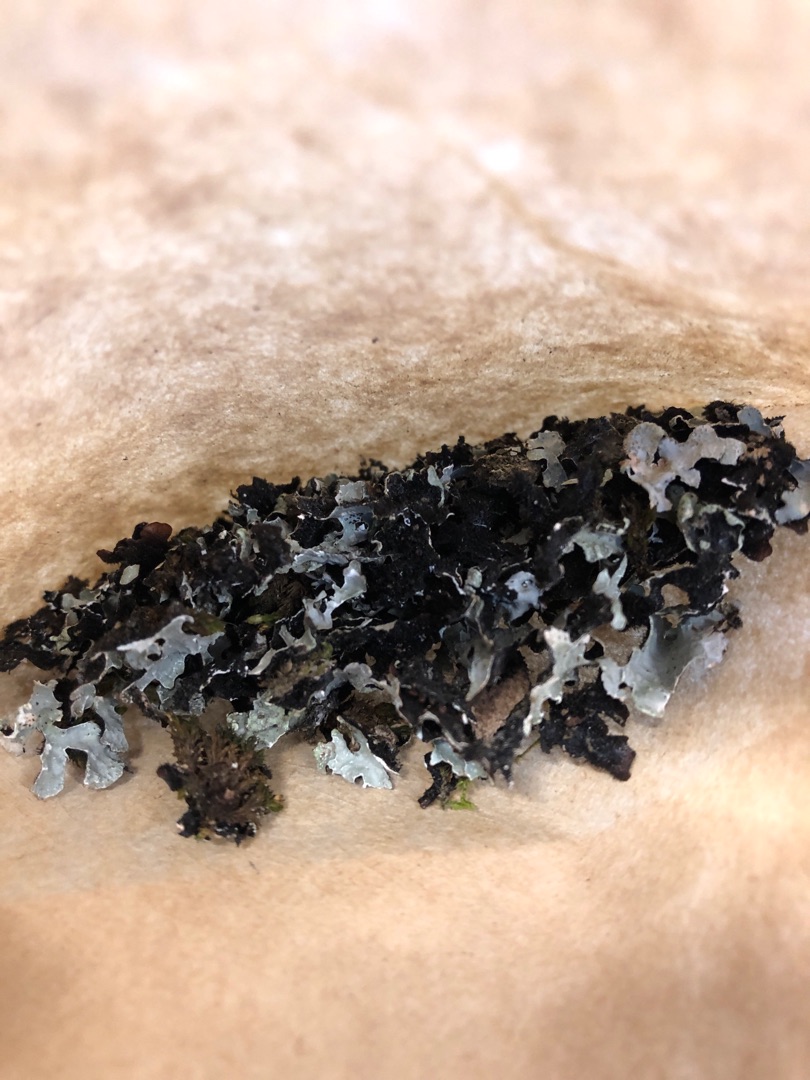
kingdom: Fungi
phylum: Ascomycota
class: Lecanoromycetes
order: Lecanorales
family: Parmeliaceae
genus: Parmelia
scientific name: Parmelia sulcata
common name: Rynket skållav
